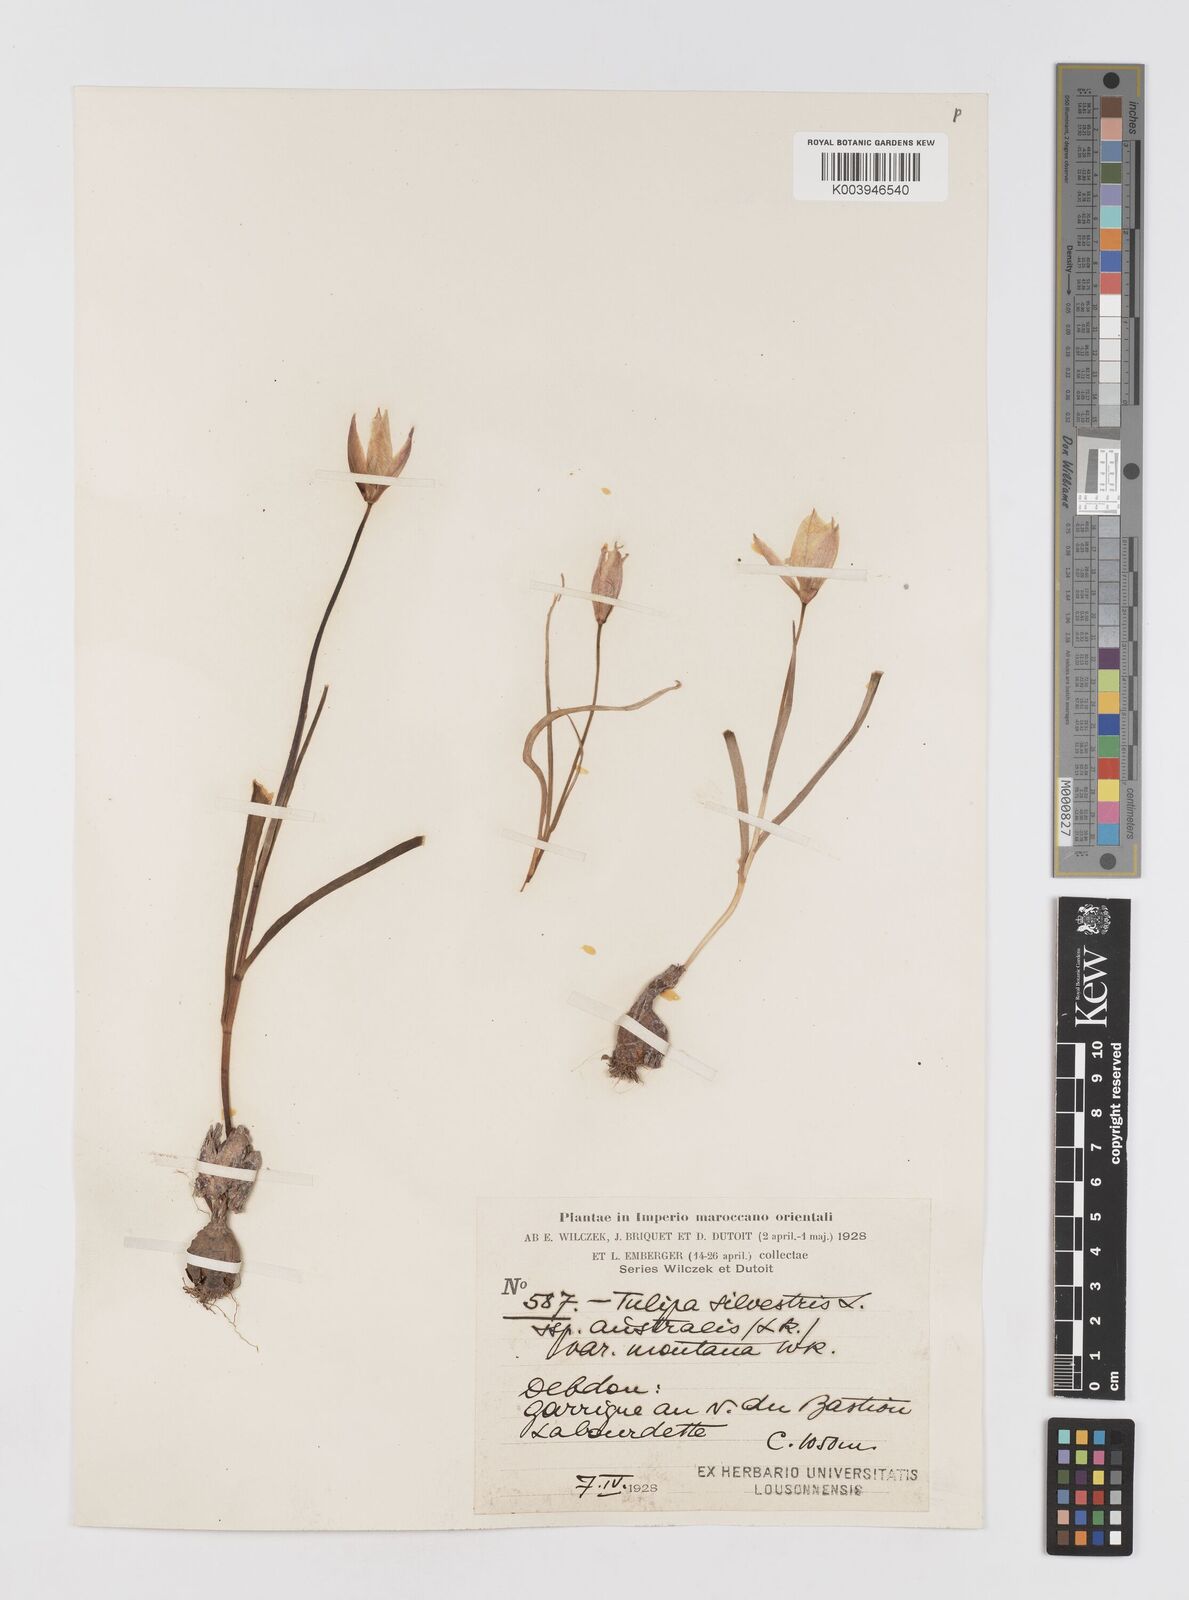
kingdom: Plantae
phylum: Tracheophyta
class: Liliopsida
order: Liliales
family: Liliaceae
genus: Tulipa
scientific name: Tulipa sylvestris
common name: Wild tulip
